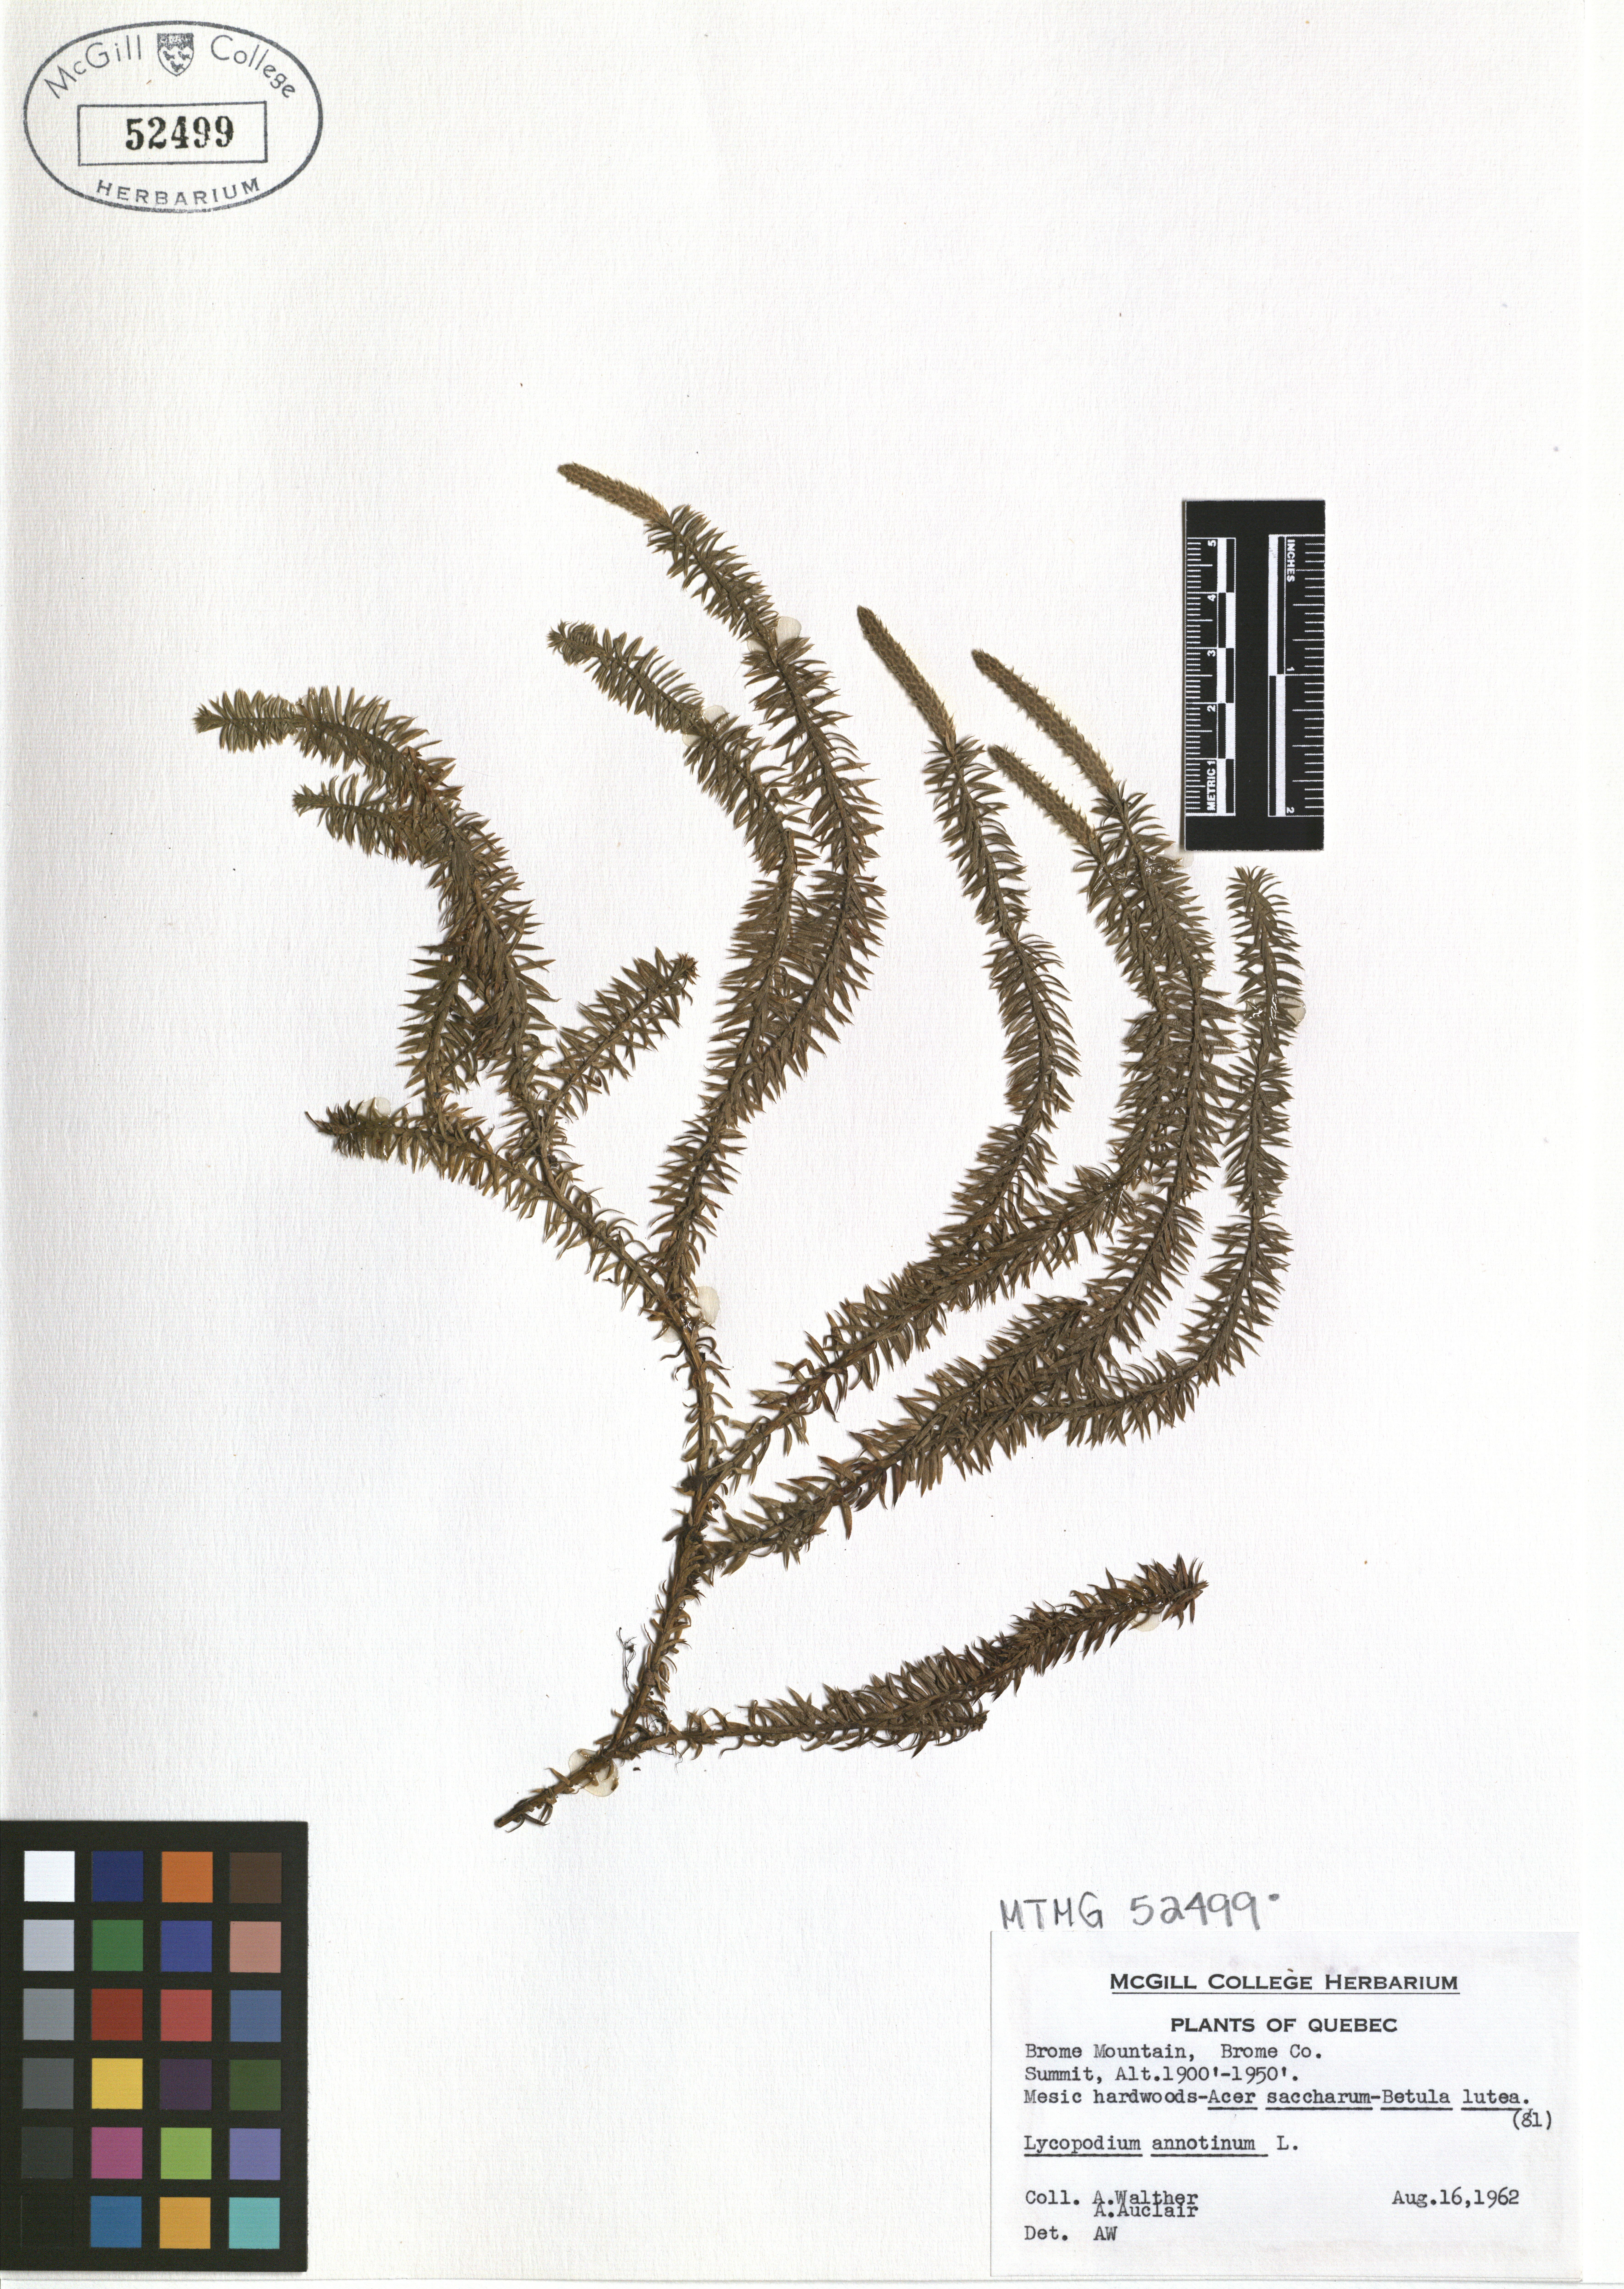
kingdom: Plantae
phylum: Tracheophyta
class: Lycopodiopsida
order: Lycopodiales
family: Lycopodiaceae
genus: Spinulum
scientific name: Spinulum annotinum
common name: Interrupted club-moss
